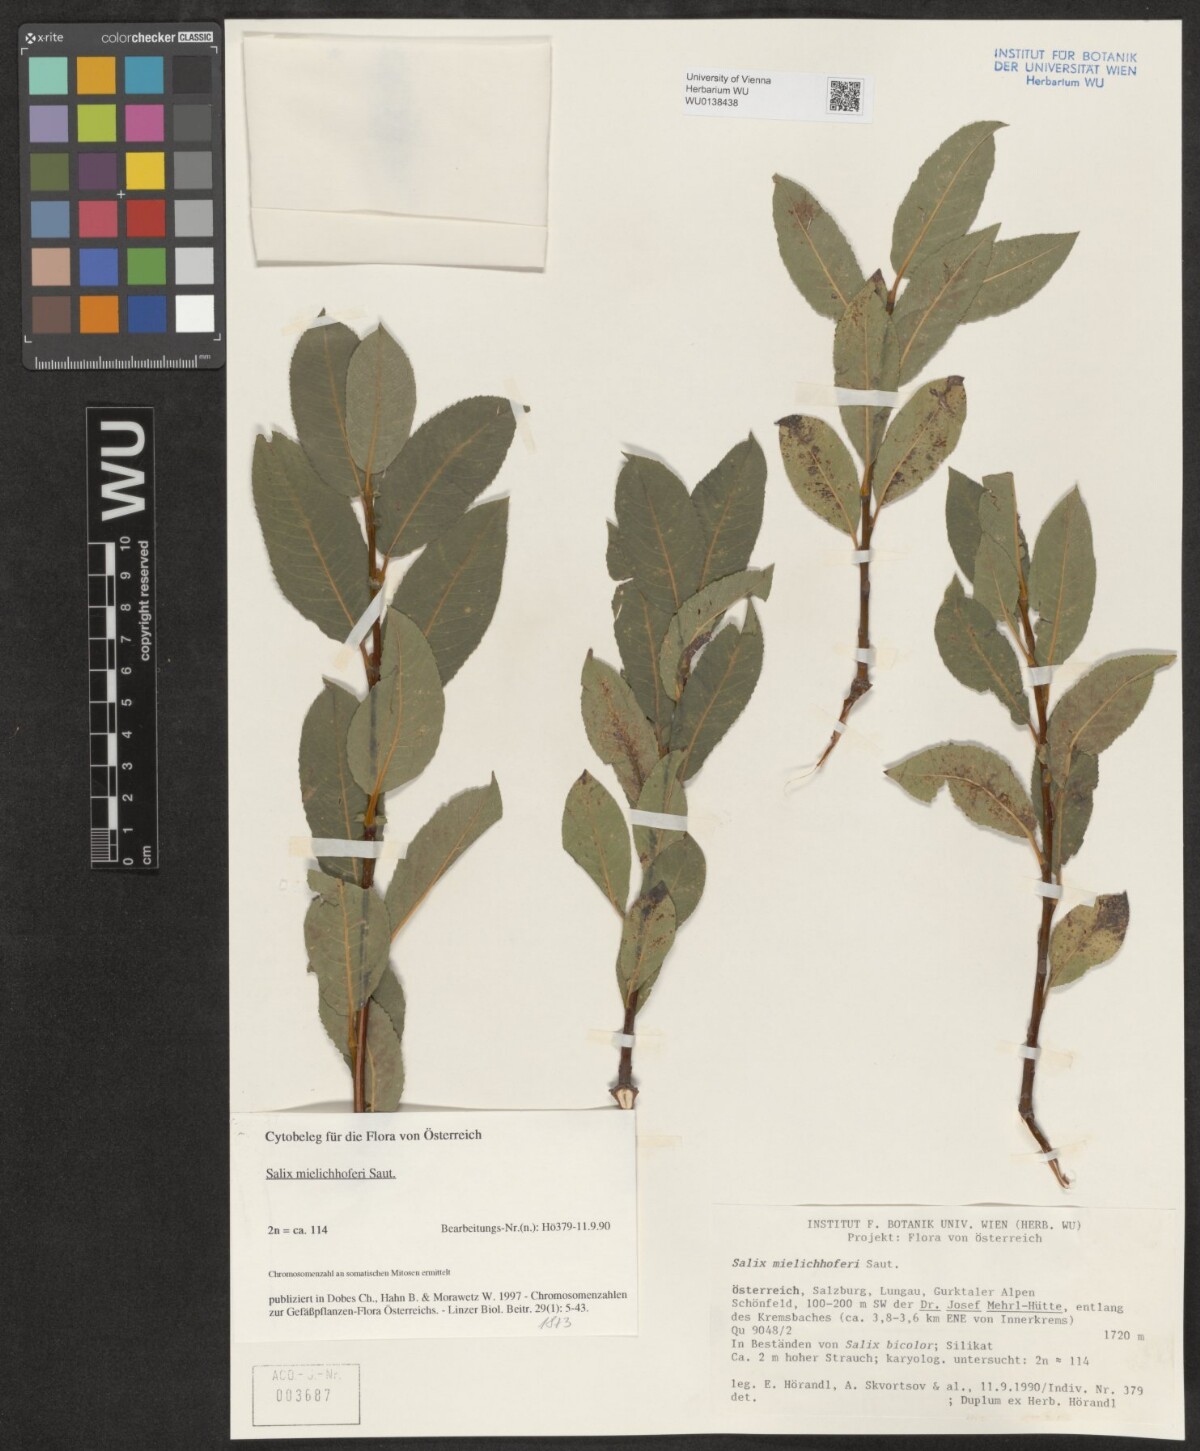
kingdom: Plantae
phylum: Tracheophyta
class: Magnoliopsida
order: Malpighiales
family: Salicaceae
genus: Salix
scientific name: Salix mielichhoferi
